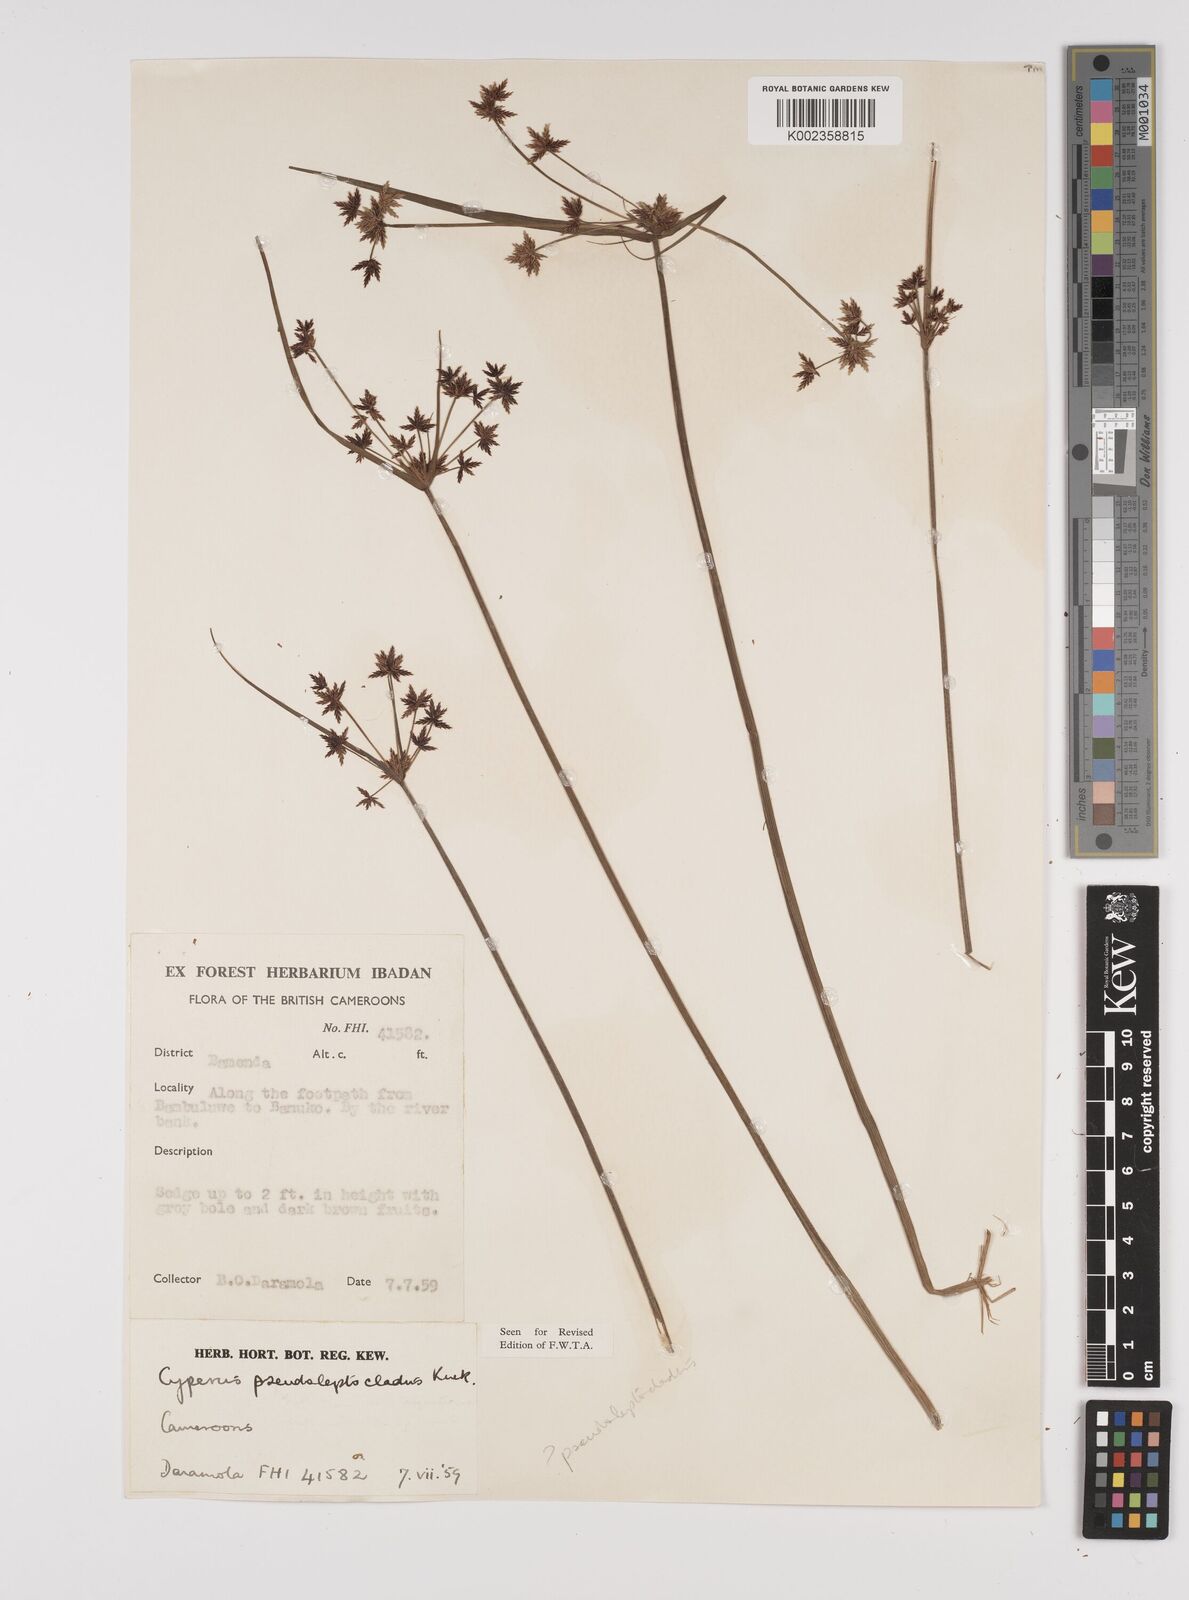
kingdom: Plantae
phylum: Tracheophyta
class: Liliopsida
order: Poales
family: Cyperaceae
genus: Cyperus
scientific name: Cyperus glaucophyllus
